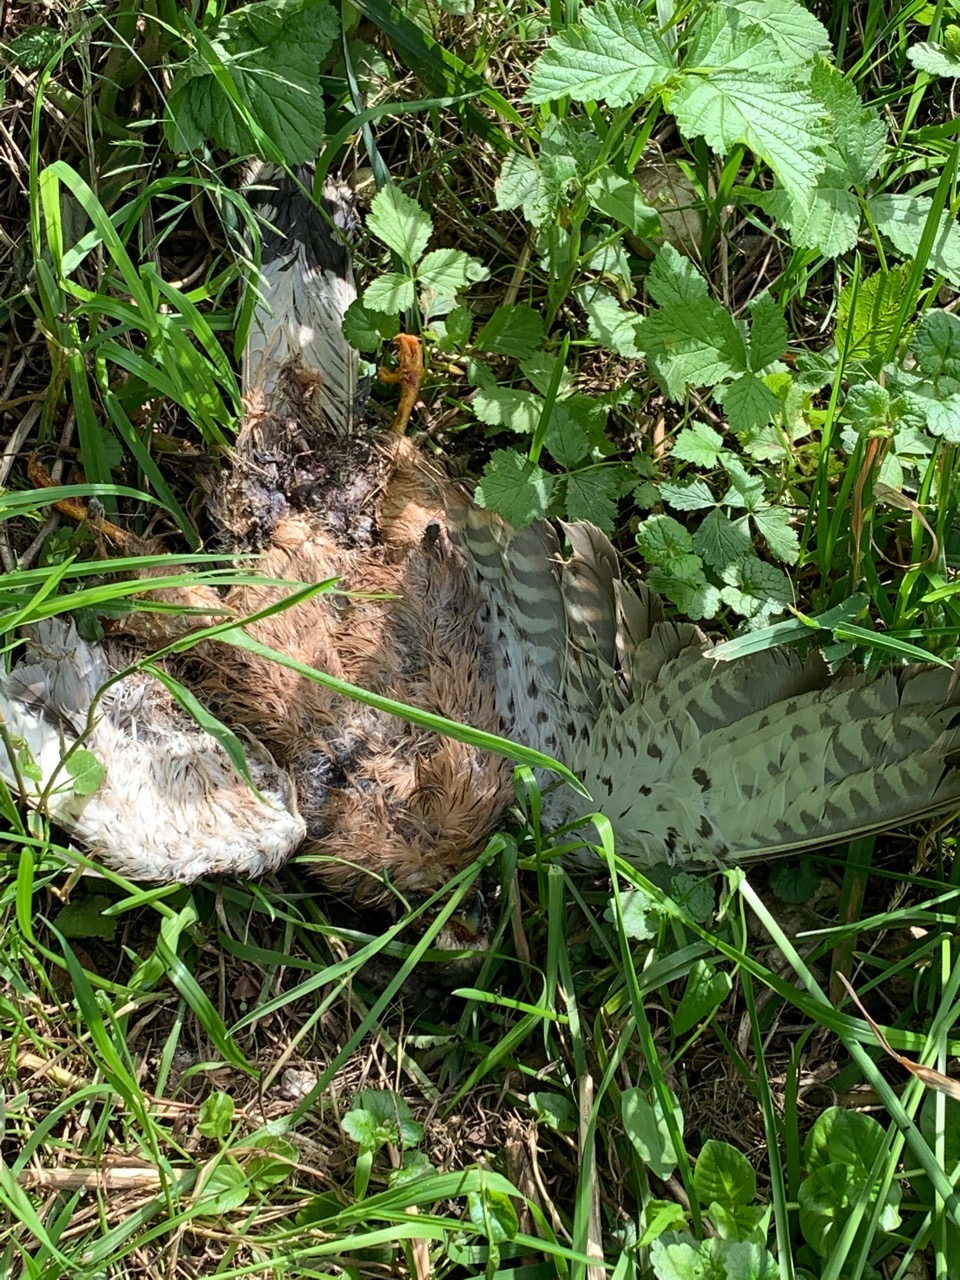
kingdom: Animalia
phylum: Chordata
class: Aves
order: Falconiformes
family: Falconidae
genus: Falco
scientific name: Falco tinnunculus
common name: Common kestrel
